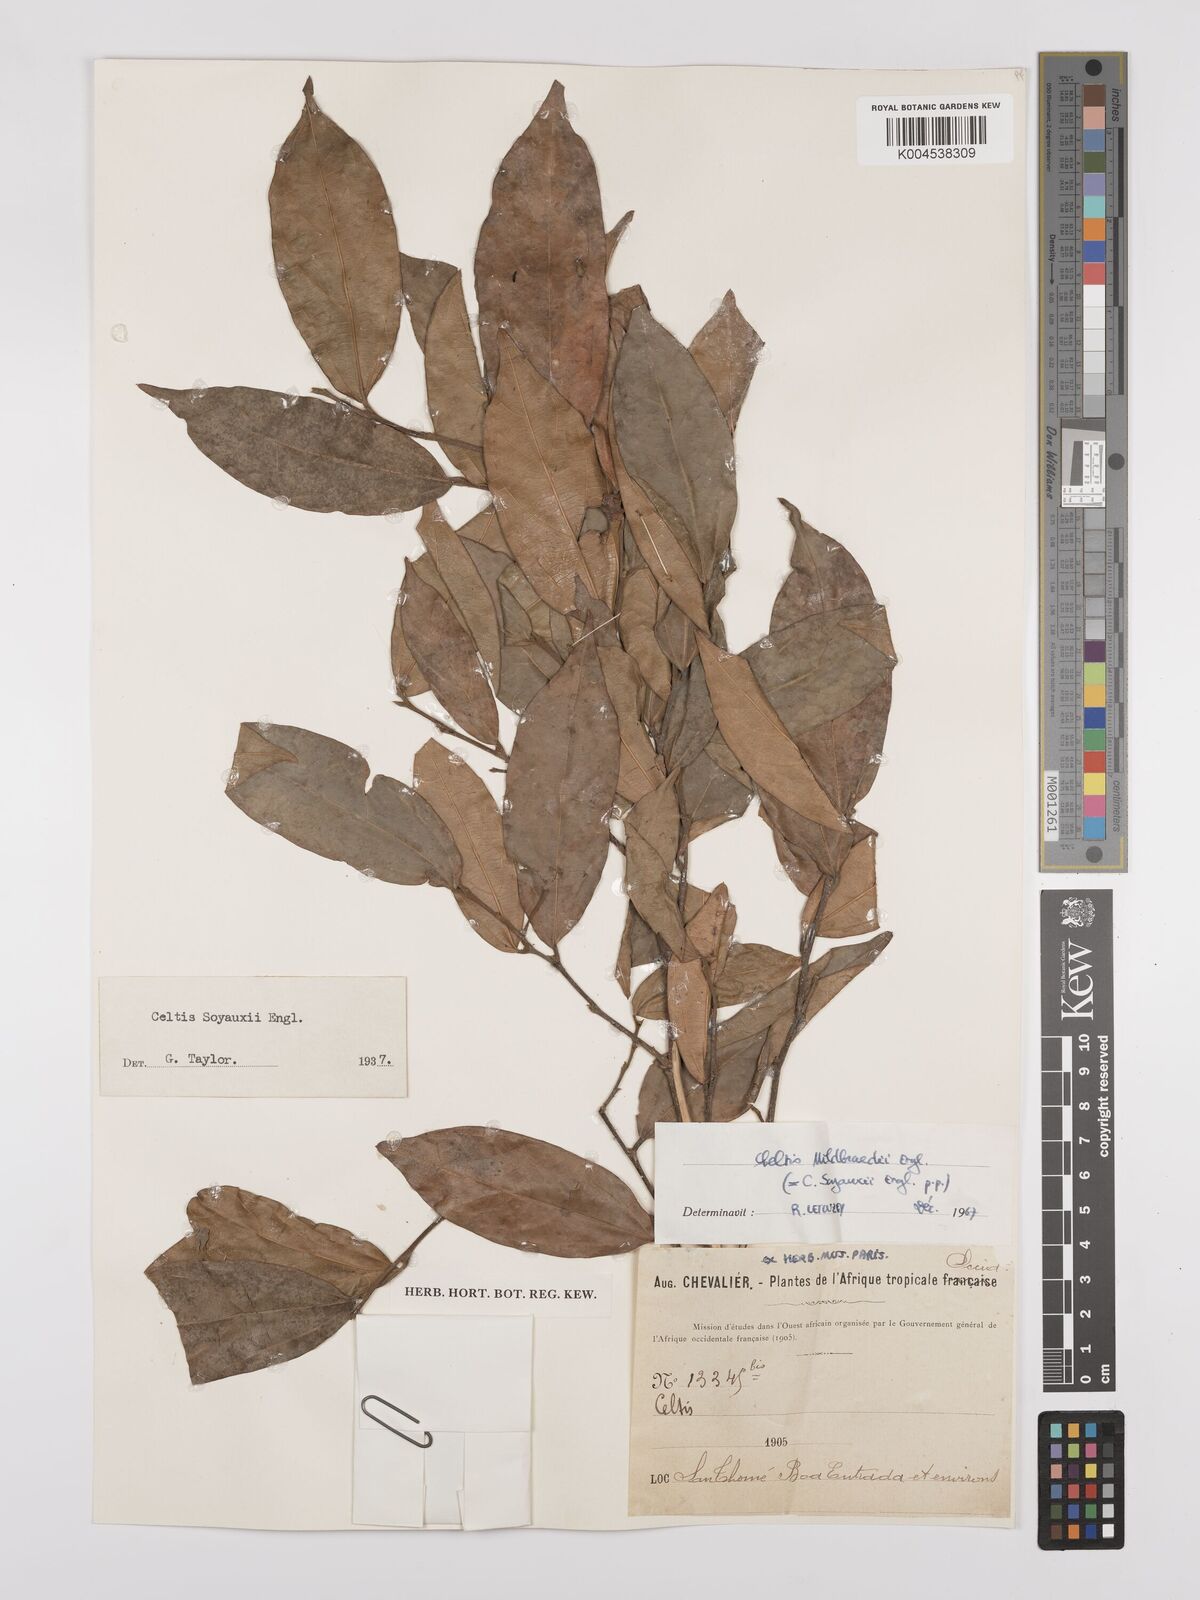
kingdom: Plantae
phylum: Tracheophyta
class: Magnoliopsida
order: Rosales
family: Cannabaceae
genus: Celtis
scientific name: Celtis mildbraedii
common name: Red-fruited stinkwood
